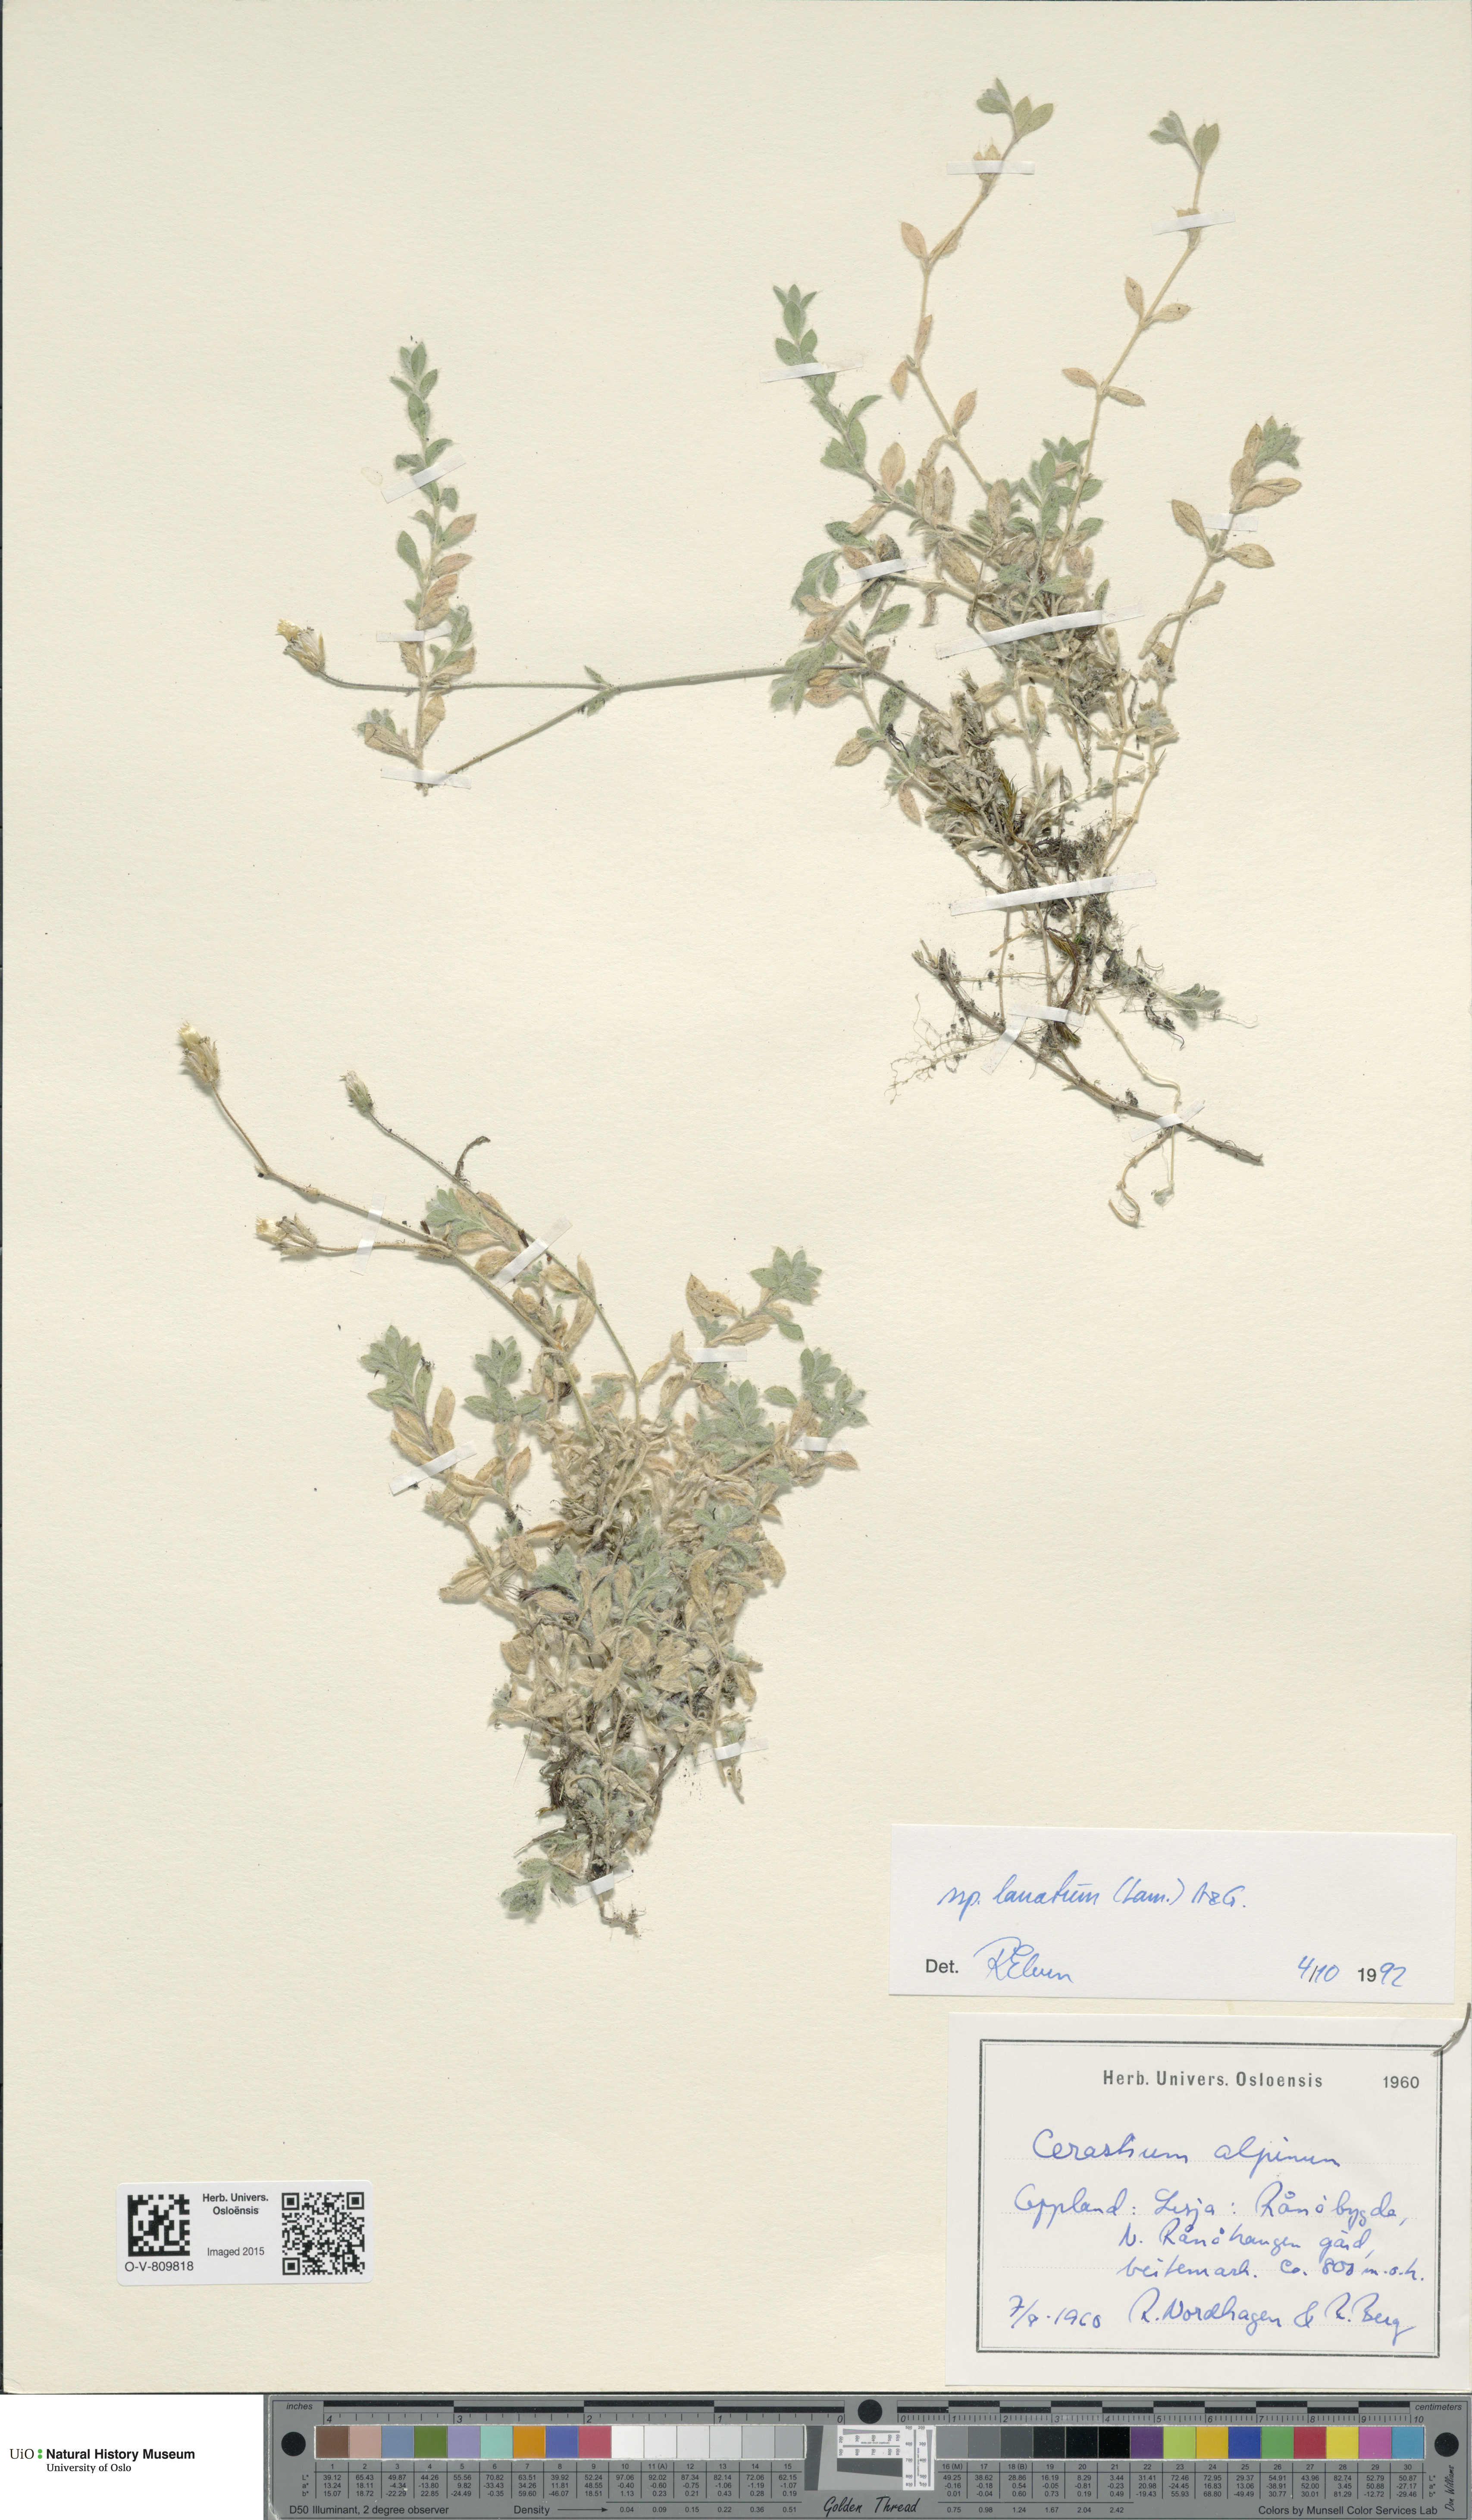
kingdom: Plantae
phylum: Tracheophyta
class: Magnoliopsida
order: Caryophyllales
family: Caryophyllaceae
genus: Cerastium
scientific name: Cerastium alpinum
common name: Alpine mouse-ear
